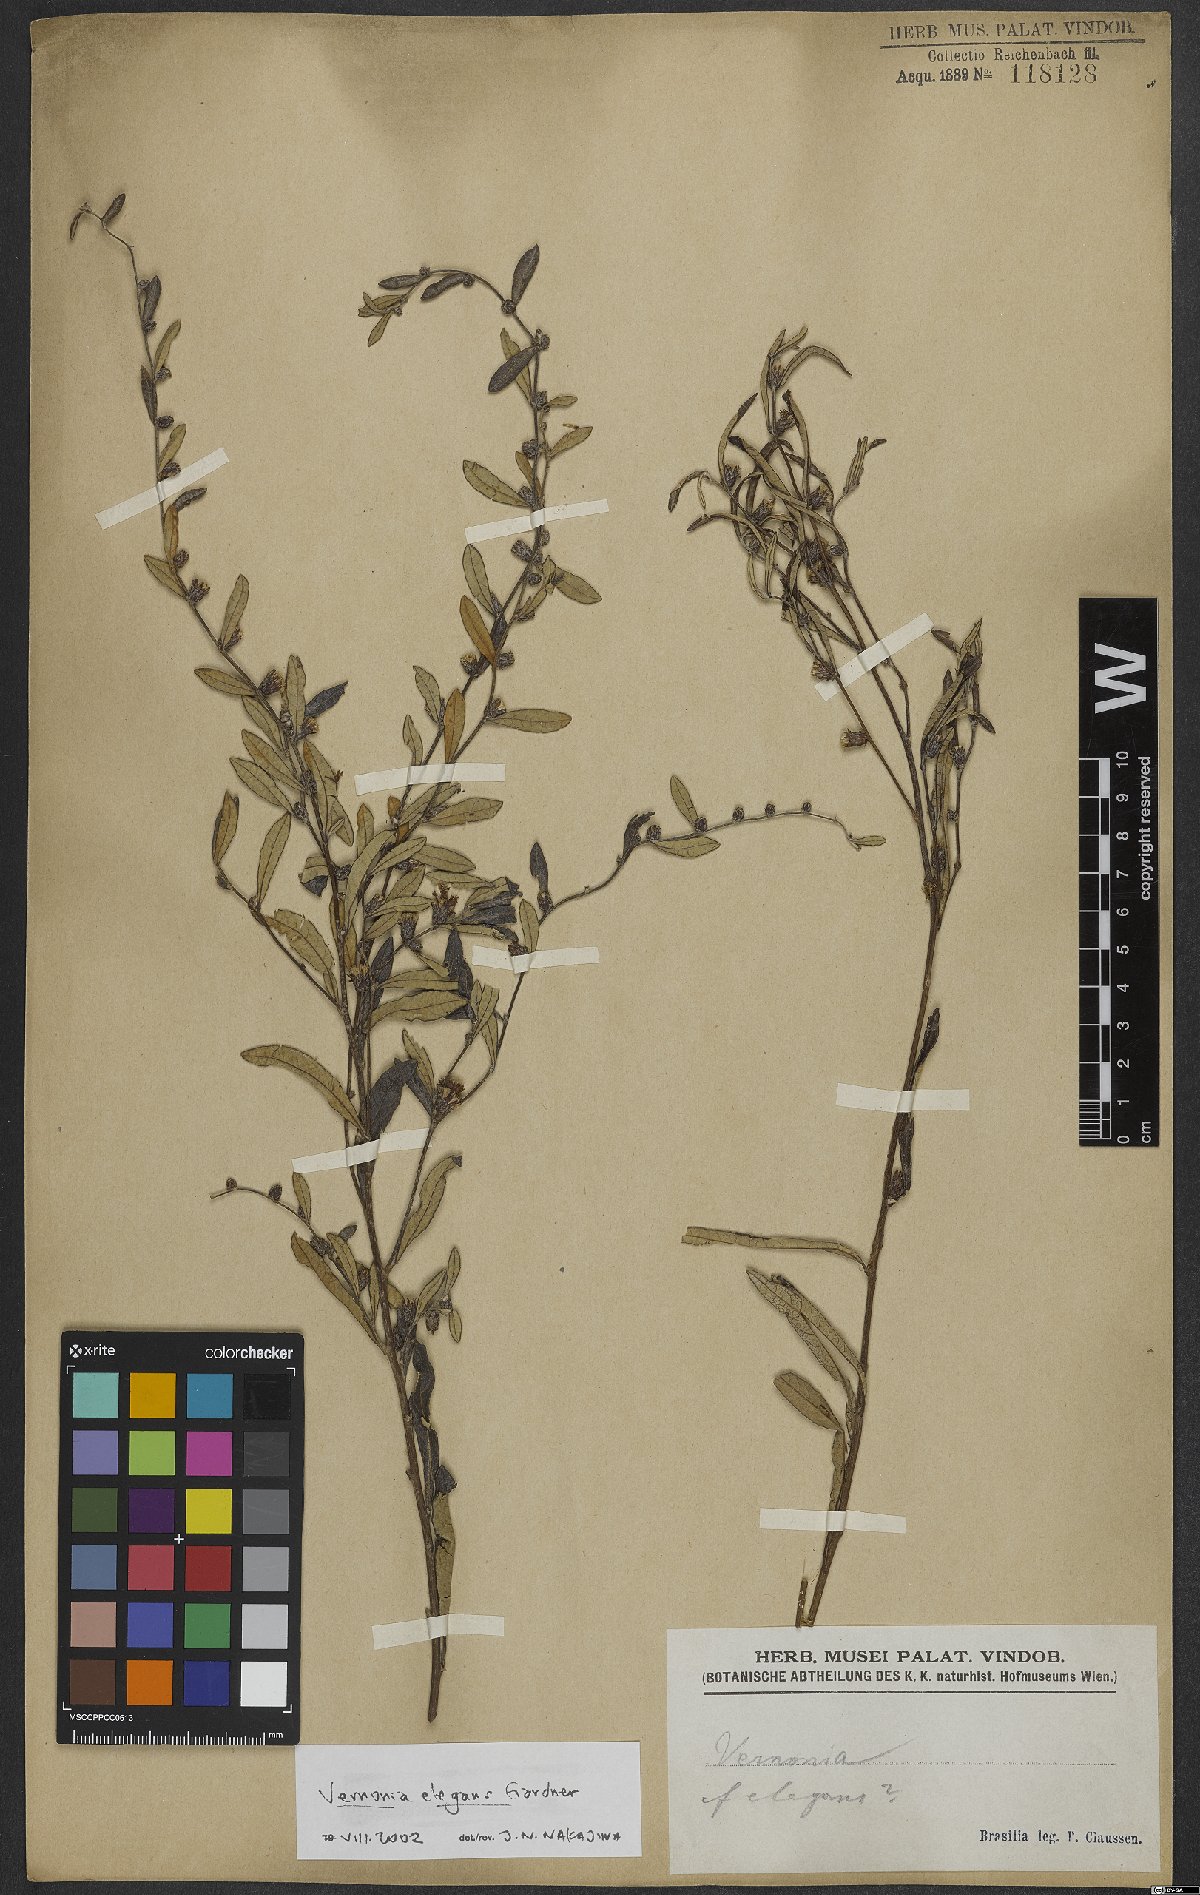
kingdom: Plantae
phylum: Tracheophyta
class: Magnoliopsida
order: Asterales
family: Asteraceae
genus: Lessingianthus
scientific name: Lessingianthus elegans
